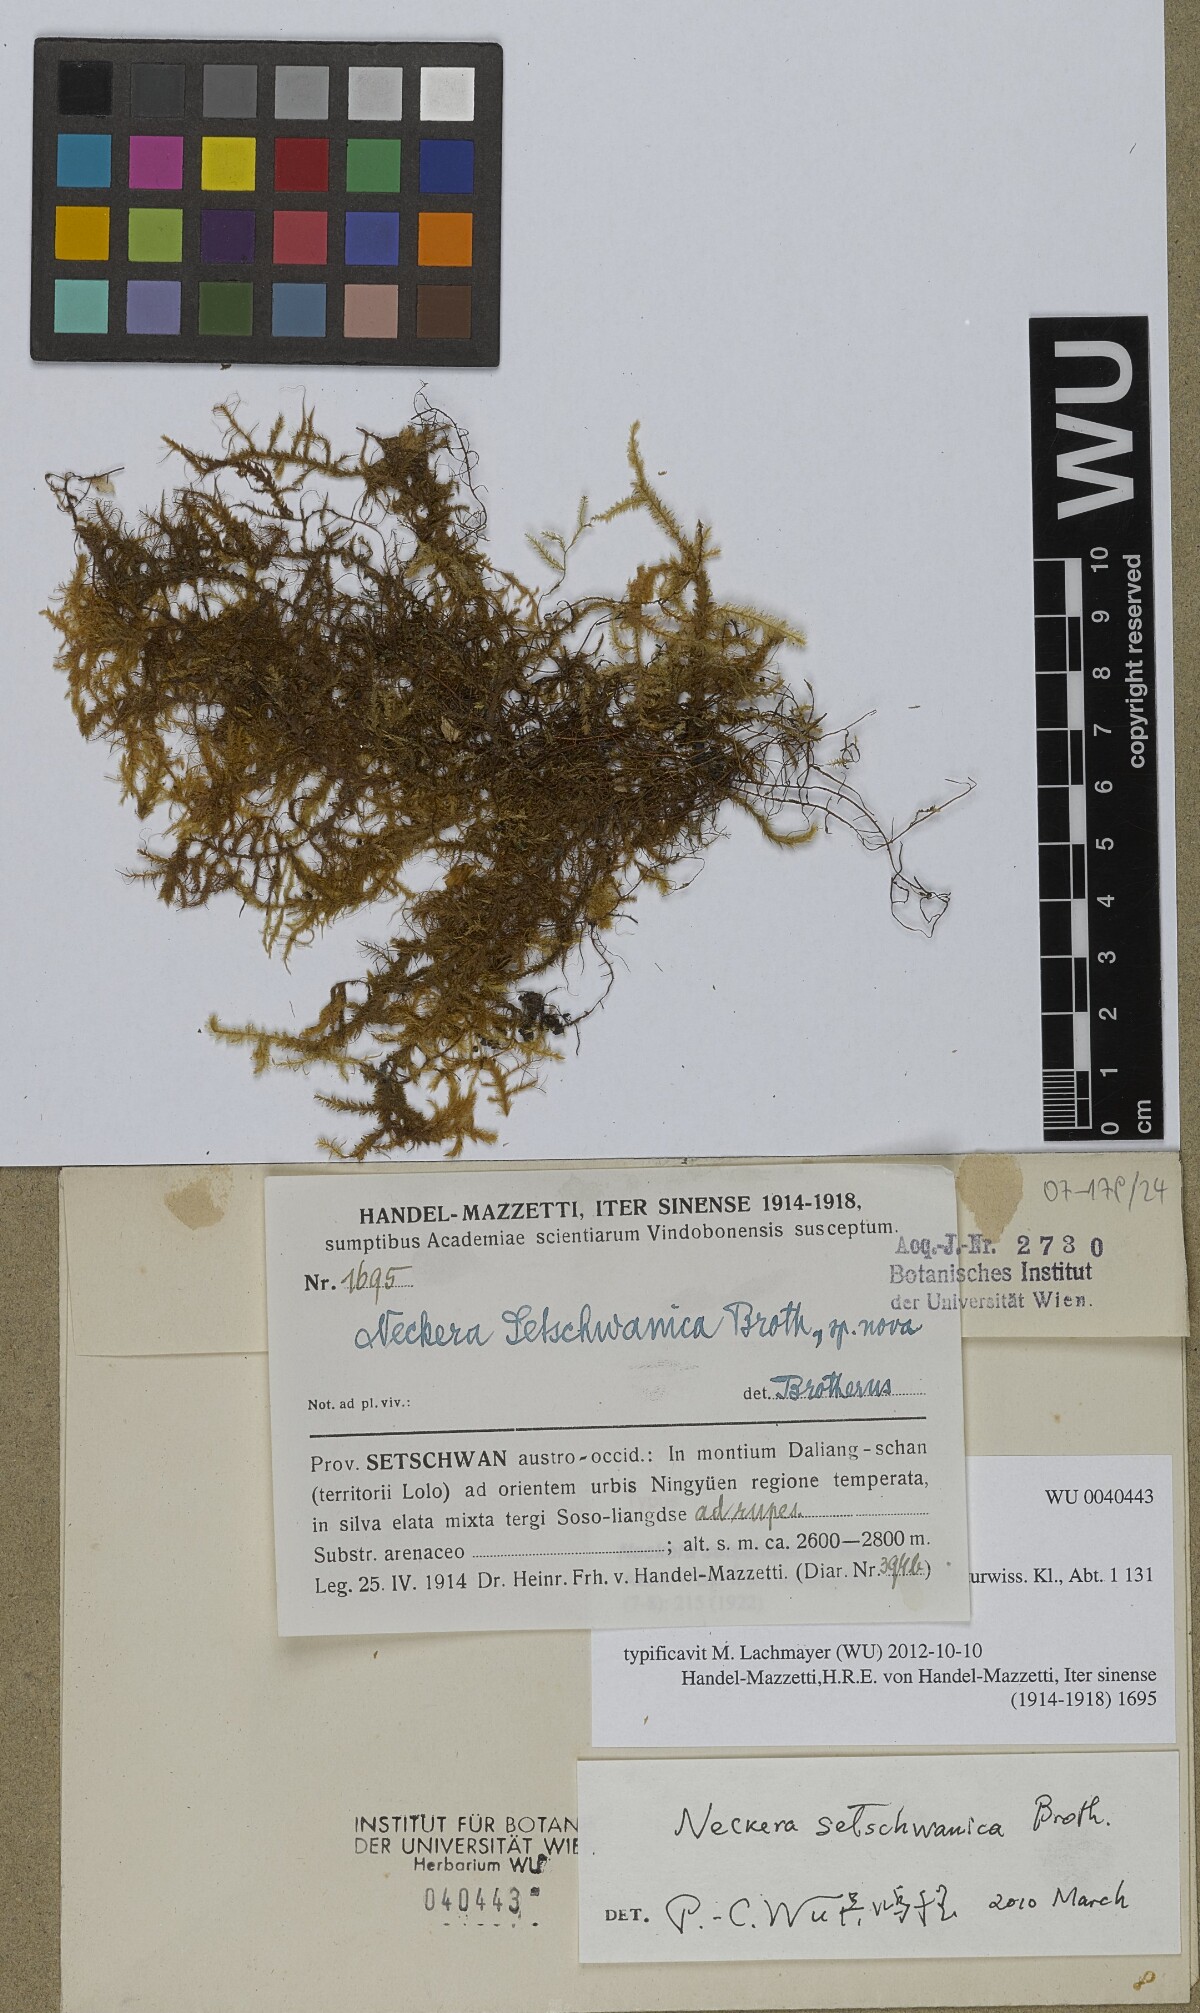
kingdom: Plantae
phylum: Bryophyta
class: Bryopsida
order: Hypnales
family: Neckeraceae
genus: Forsstroemia
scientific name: Forsstroemia setschwanica
